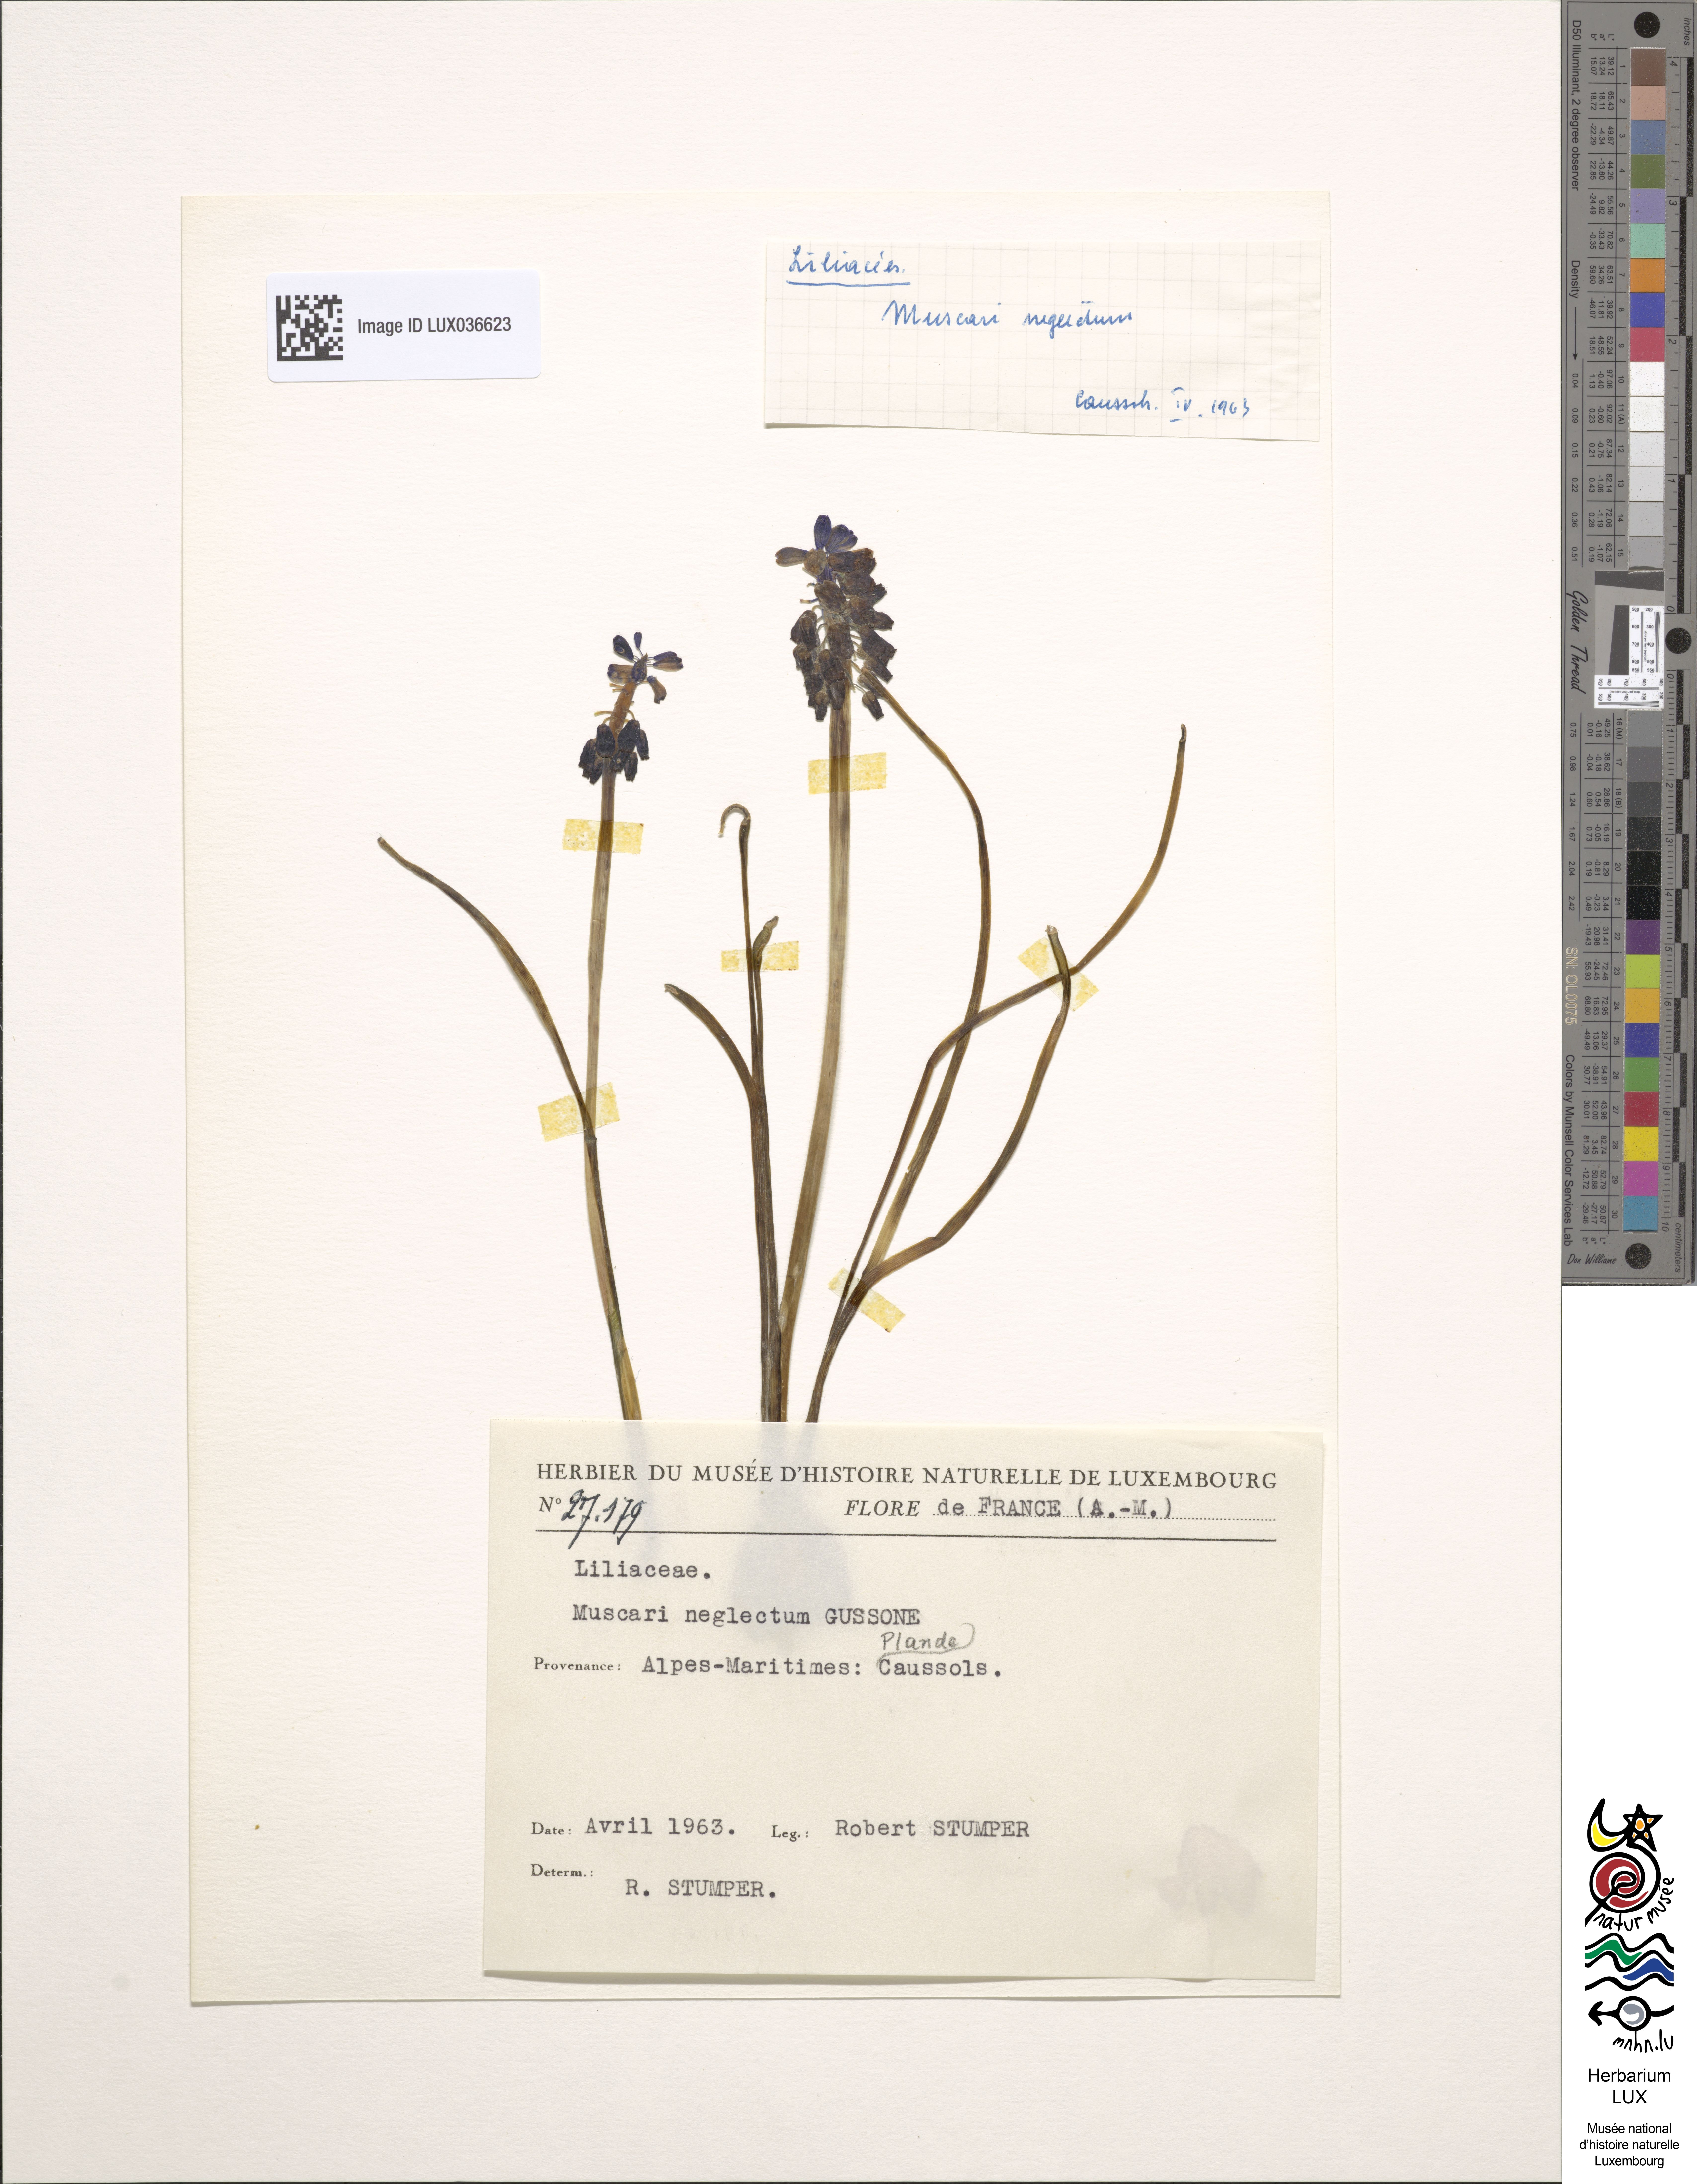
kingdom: Plantae
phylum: Tracheophyta
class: Liliopsida
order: Asparagales
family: Asparagaceae
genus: Muscari
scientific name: Muscari neglectum
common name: Grape-hyacinth
